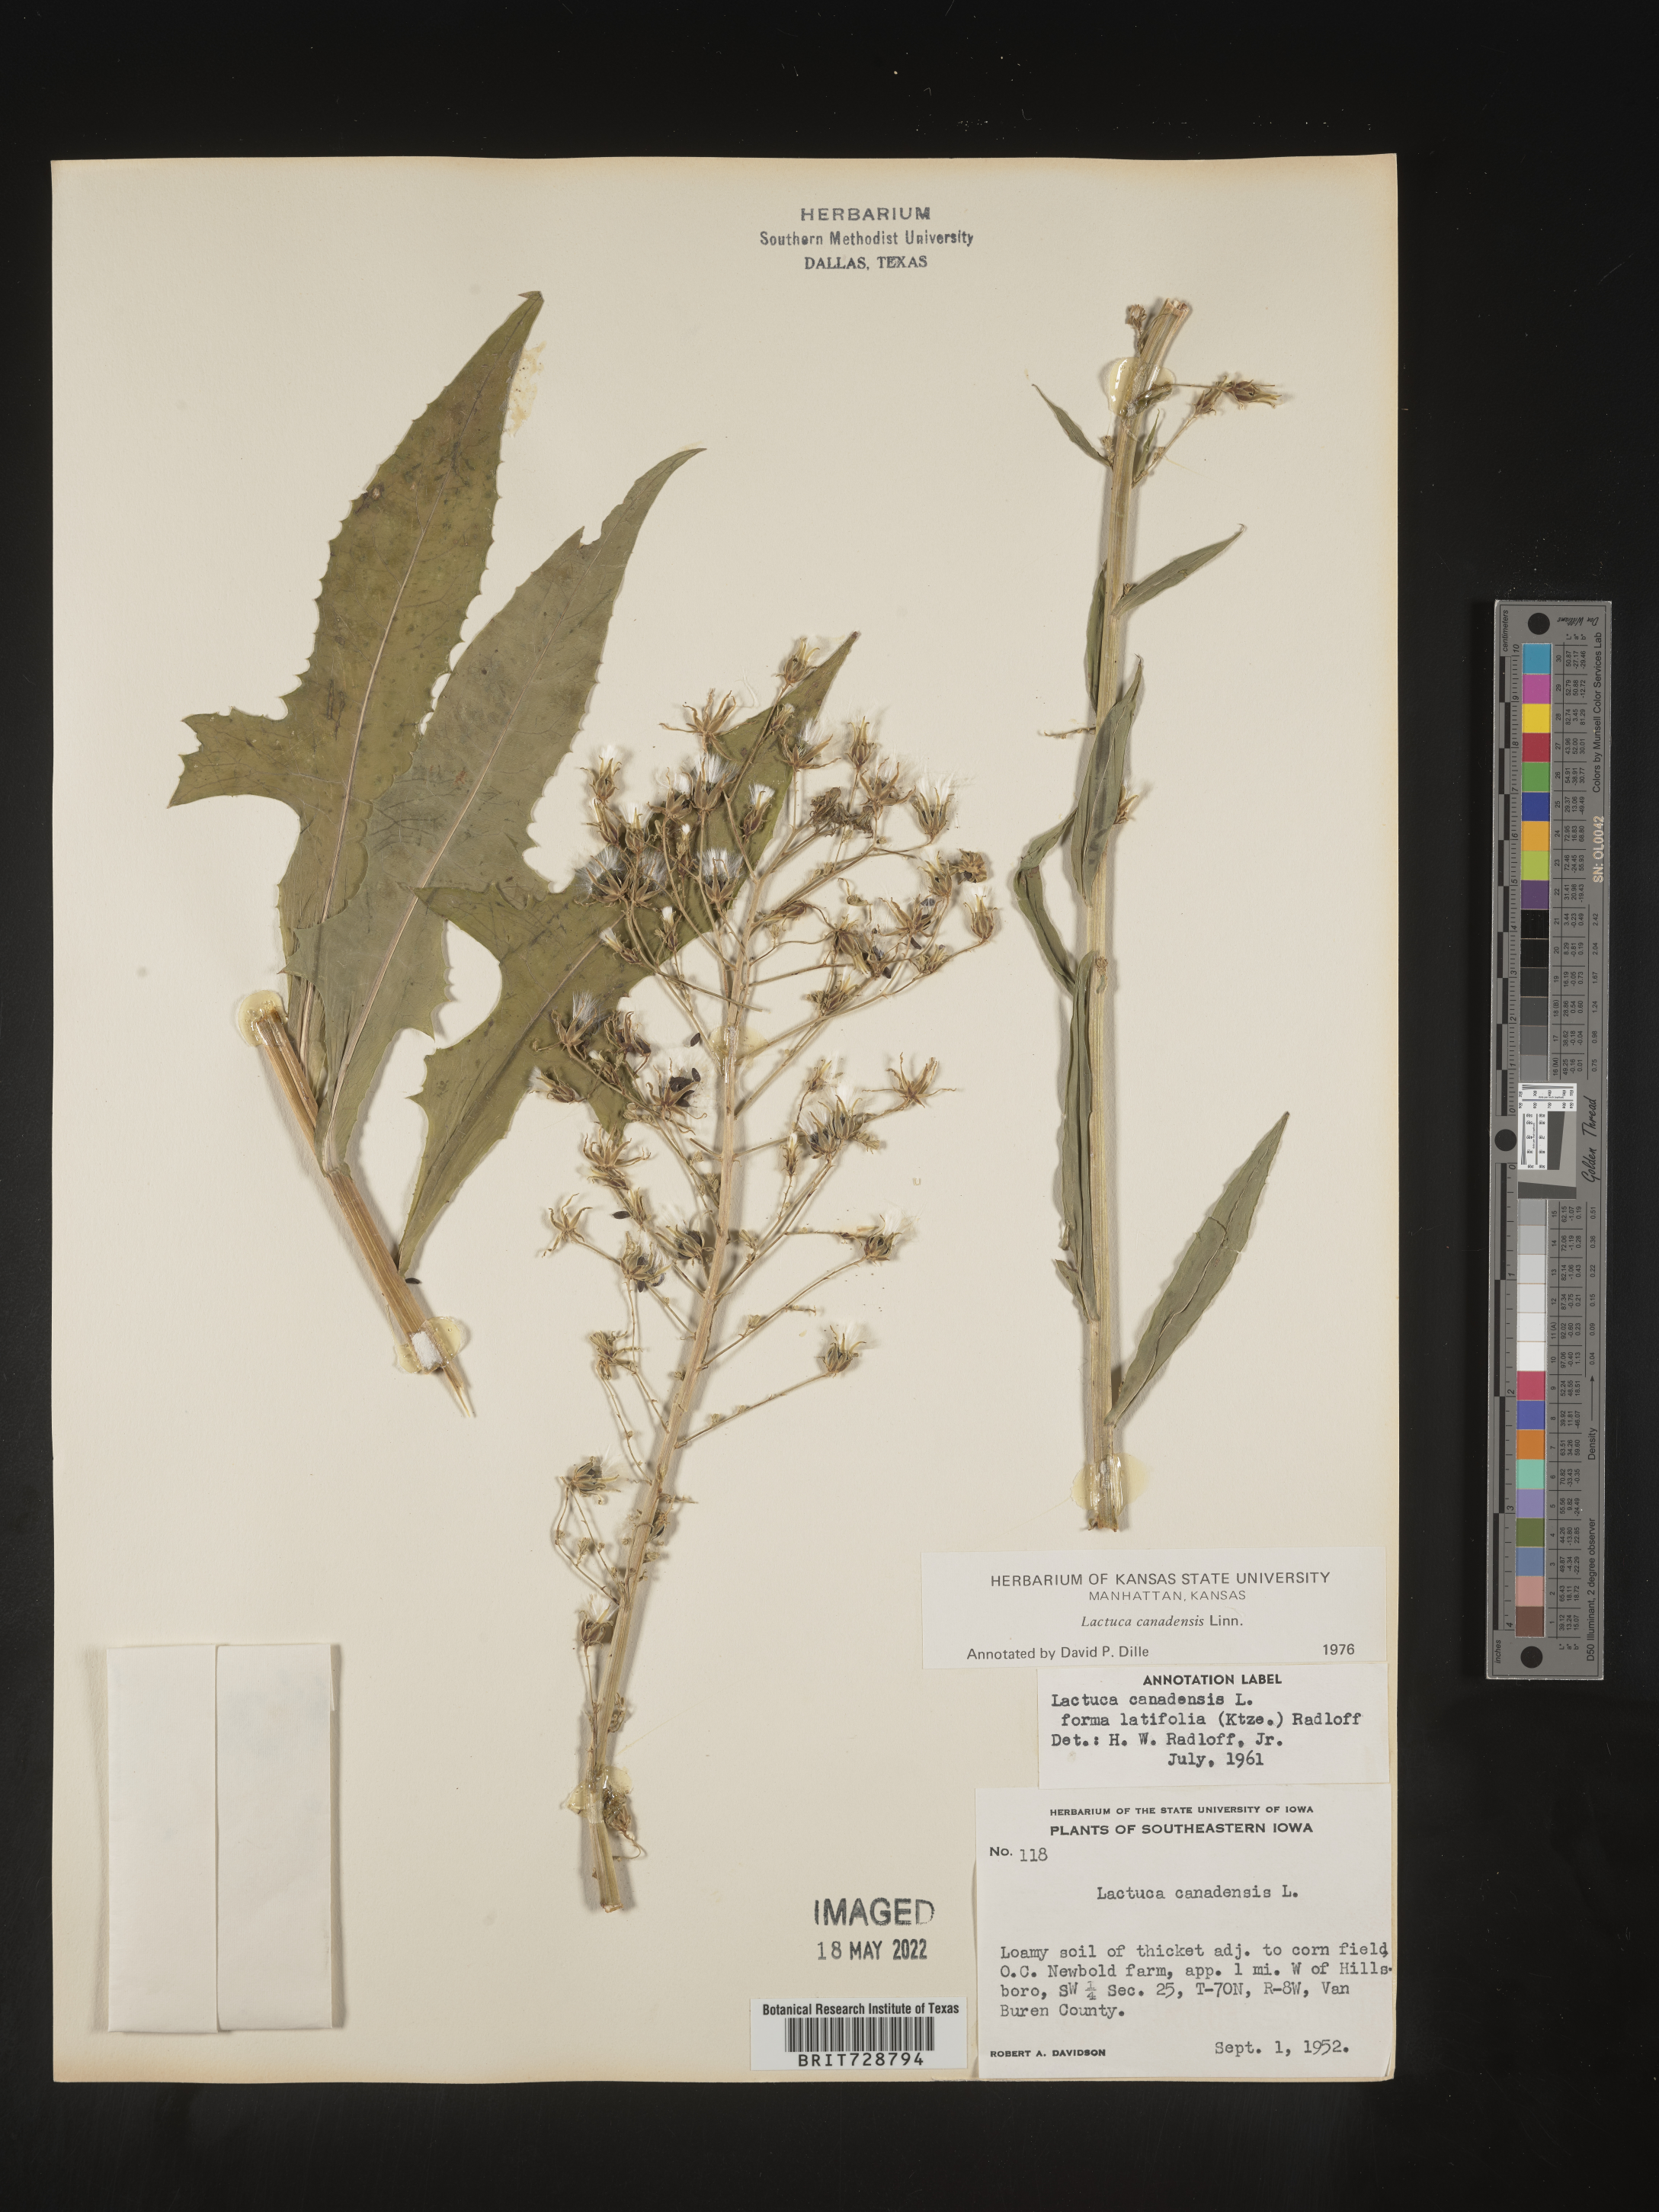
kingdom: Plantae
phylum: Tracheophyta
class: Magnoliopsida
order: Asterales
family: Asteraceae
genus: Lactuca
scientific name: Lactuca canadensis
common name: Canada lettuce
